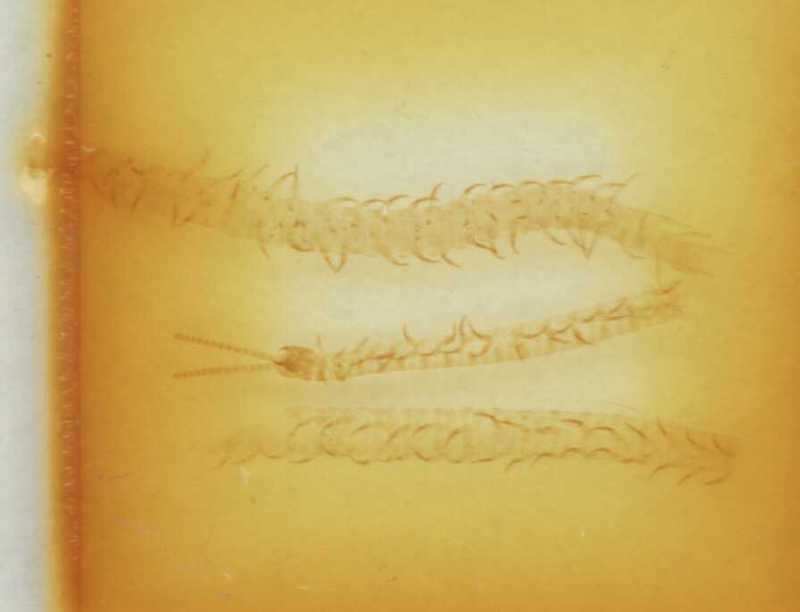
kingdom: Animalia
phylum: Arthropoda
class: Chilopoda
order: Geophilomorpha
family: Linotaeniidae
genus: Strigamia
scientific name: Strigamia transsilvanica
